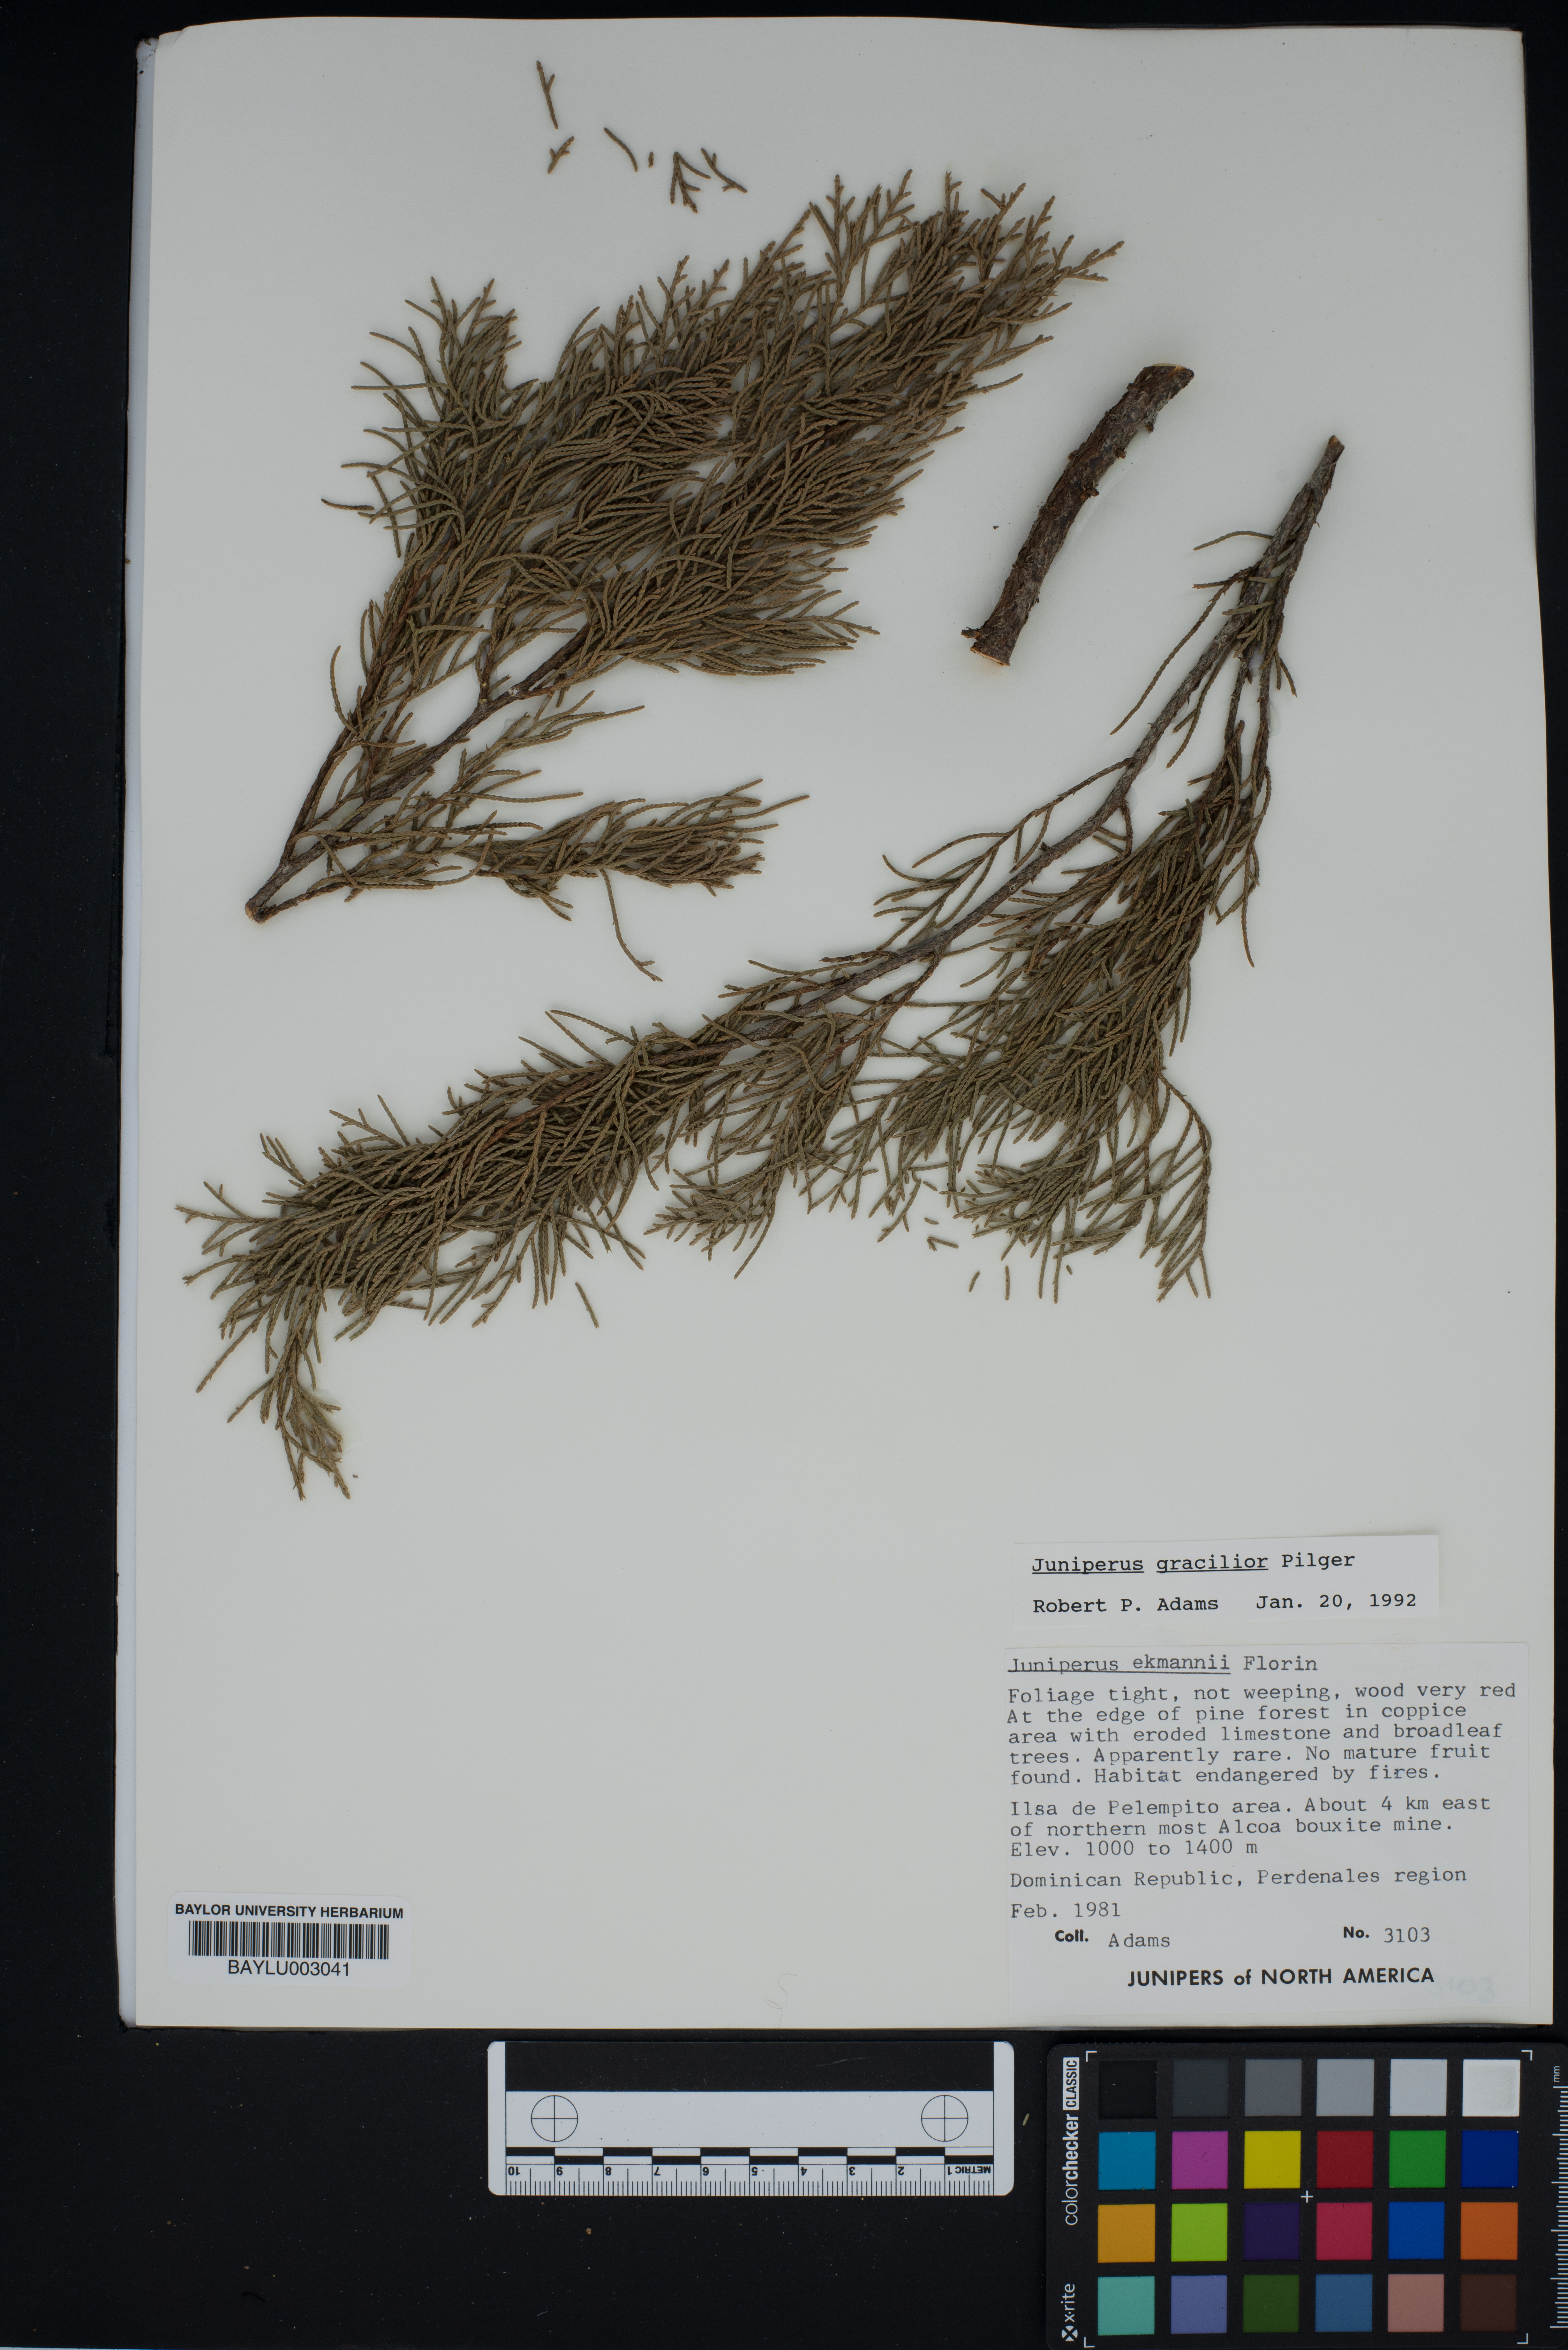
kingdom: Plantae
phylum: Tracheophyta
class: Pinopsida
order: Pinales
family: Cupressaceae
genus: Juniperus
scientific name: Juniperus gracilior
